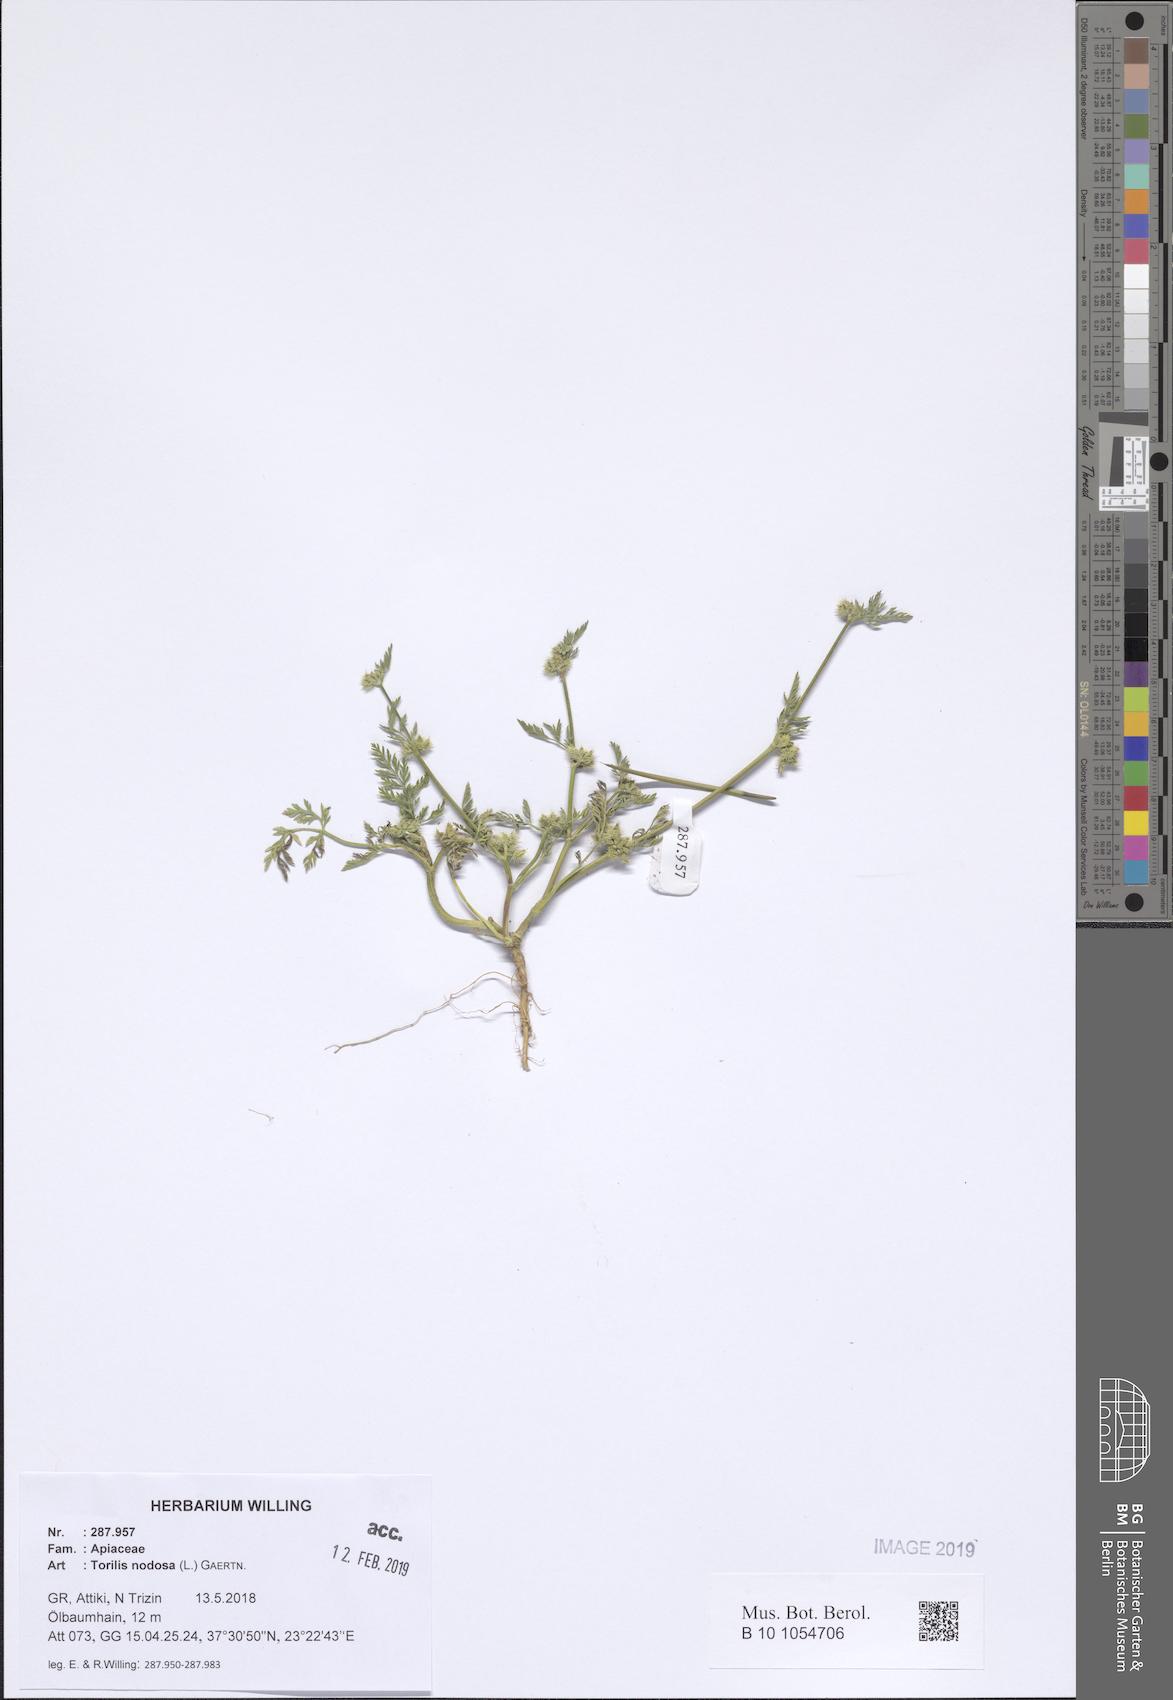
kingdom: Plantae
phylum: Tracheophyta
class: Magnoliopsida
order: Apiales
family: Apiaceae
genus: Torilis
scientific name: Torilis nodosa
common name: Knotted hedge-parsley
